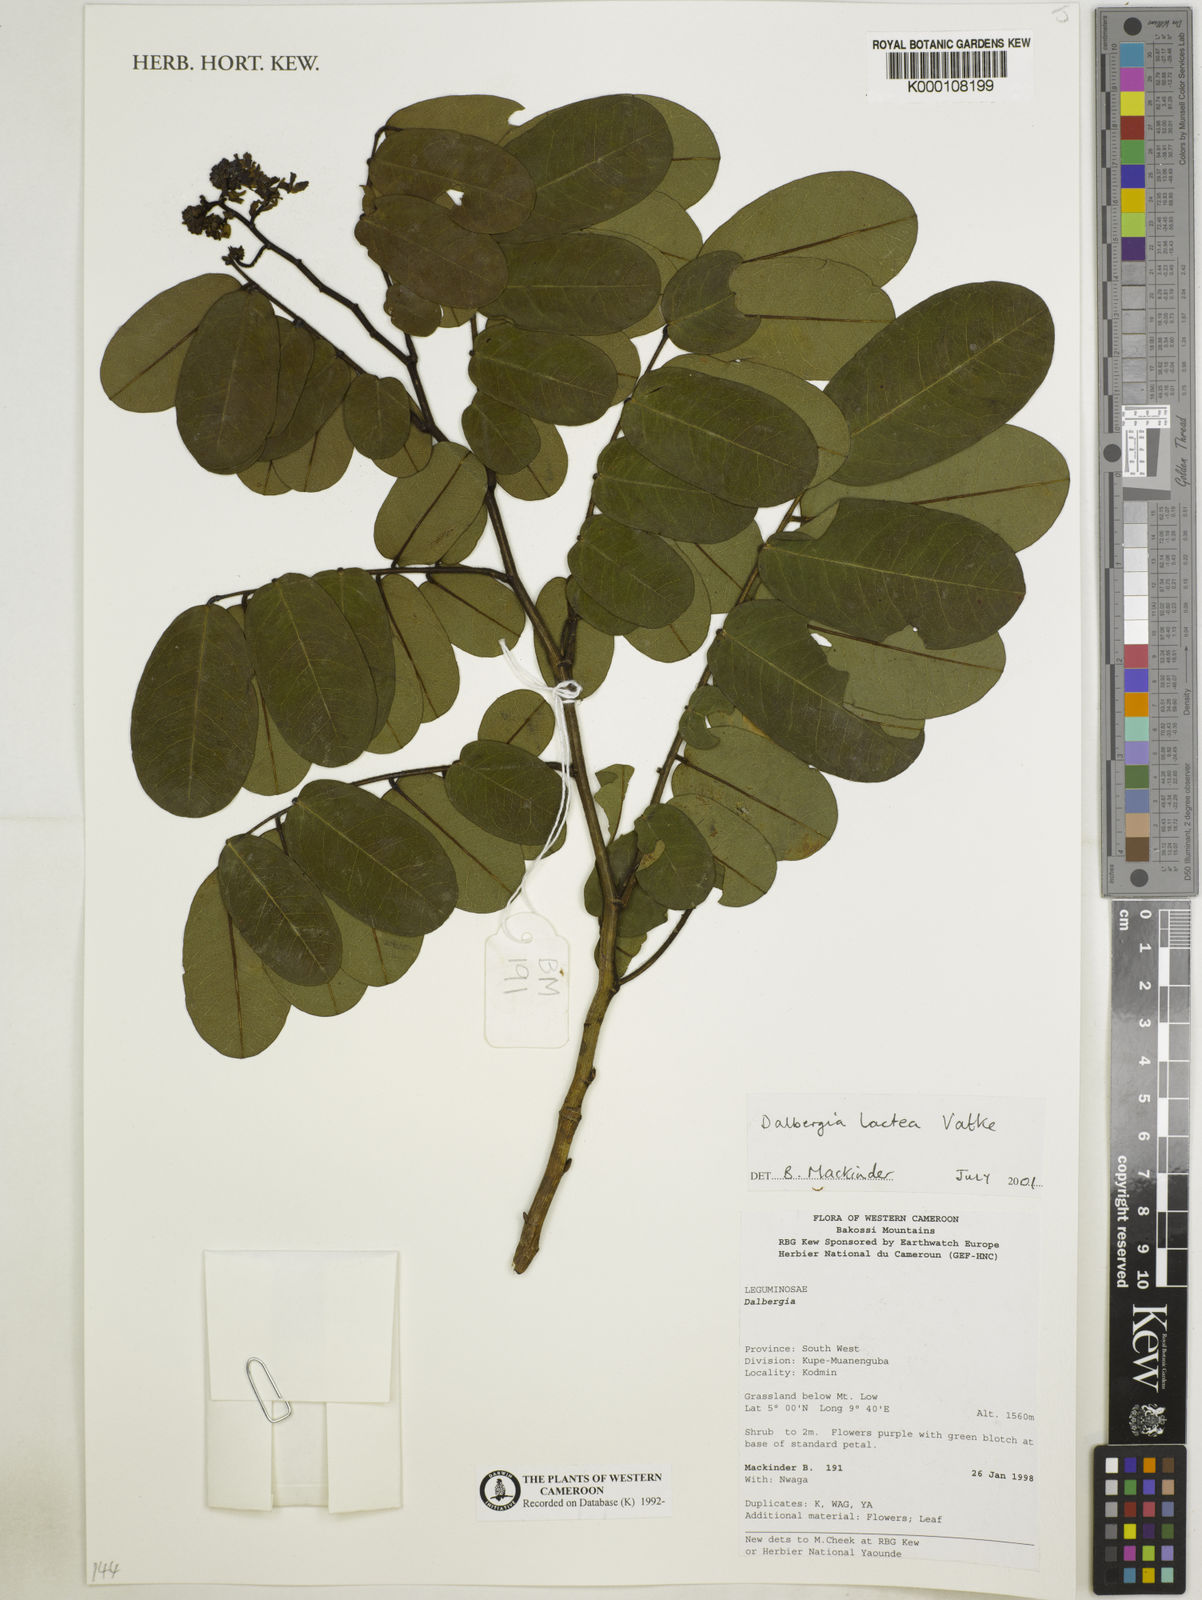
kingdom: Plantae
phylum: Tracheophyta
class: Magnoliopsida
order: Fabales
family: Fabaceae
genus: Dalbergia
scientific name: Dalbergia lactea
